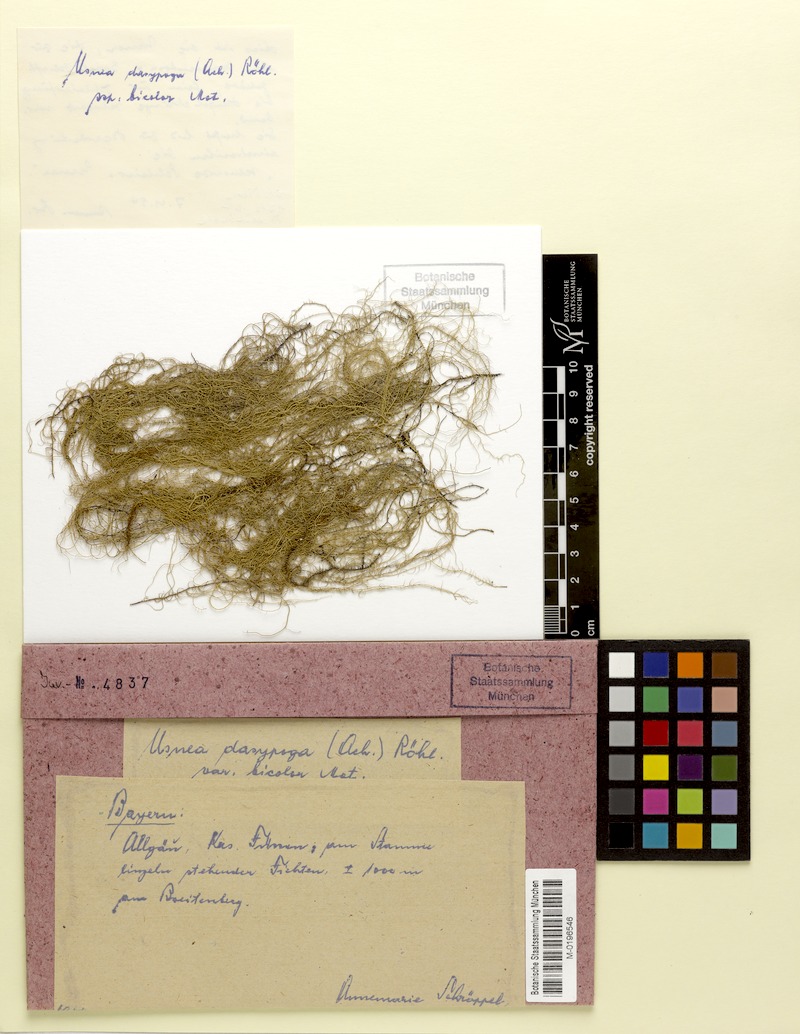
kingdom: Fungi
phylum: Ascomycota
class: Lecanoromycetes
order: Lecanorales
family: Parmeliaceae
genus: Usnea
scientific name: Usnea filipendula
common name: Fishbone beard lichen
